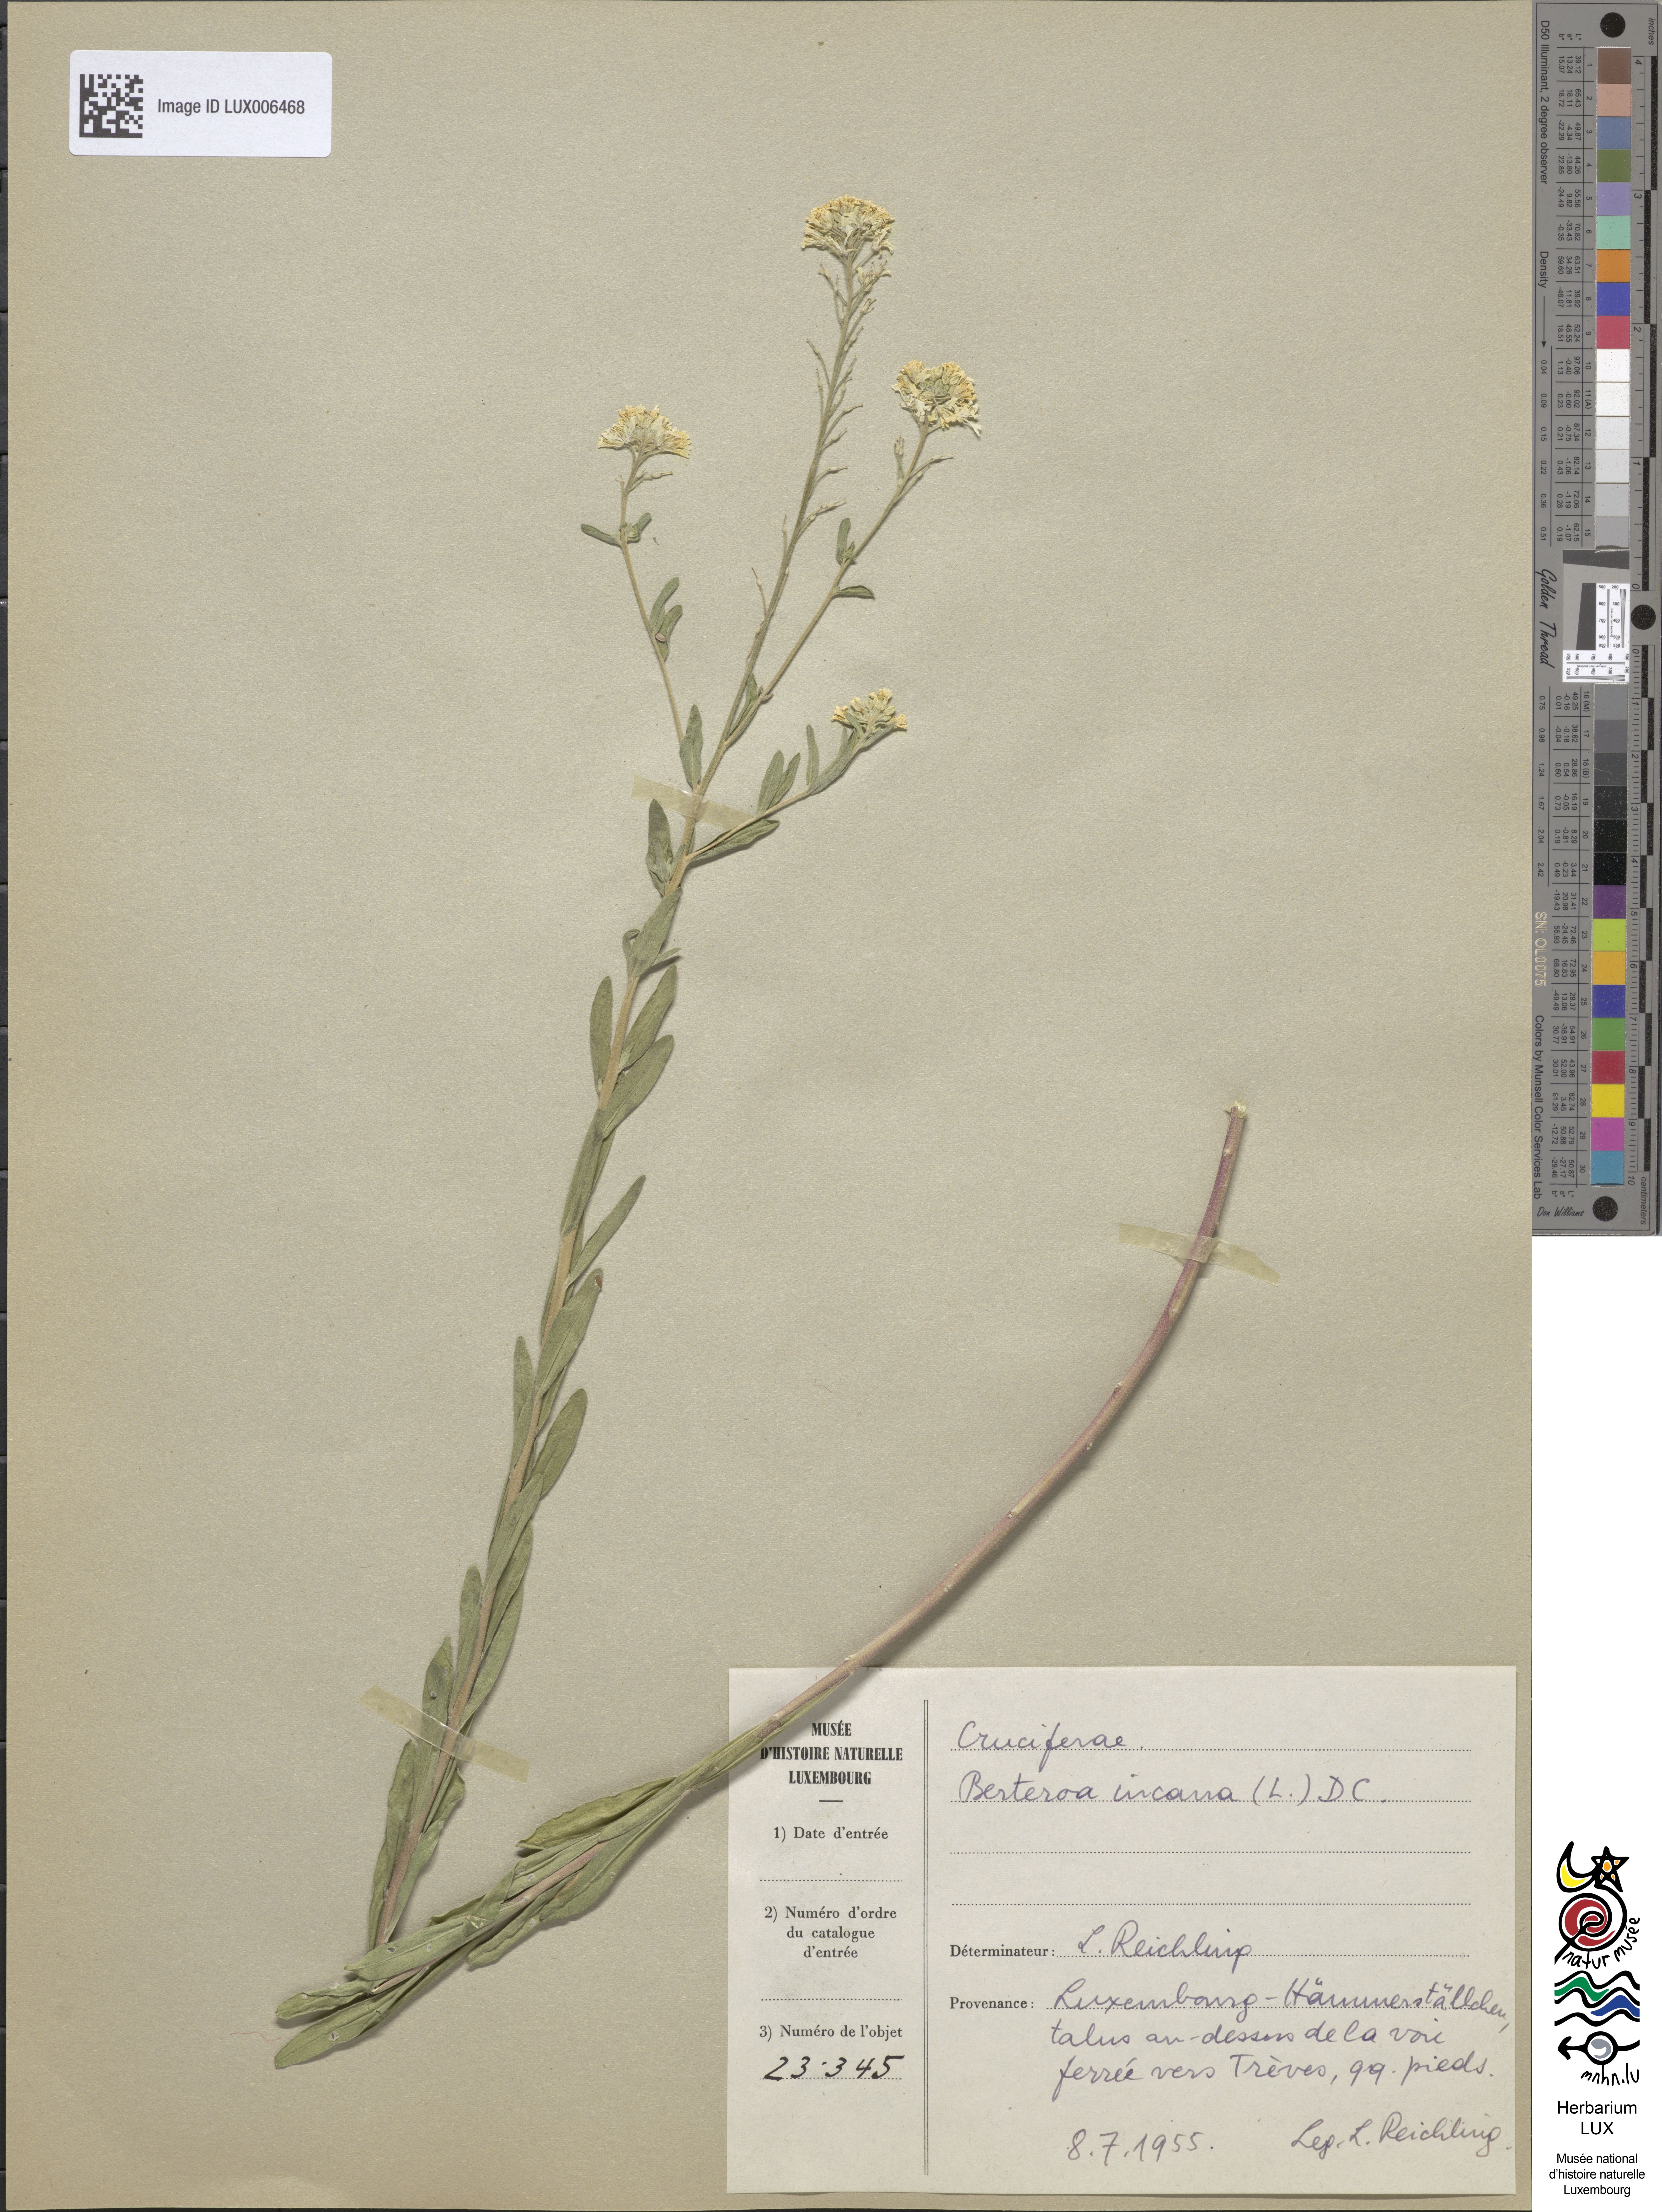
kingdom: Plantae
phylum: Tracheophyta
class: Magnoliopsida
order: Brassicales
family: Brassicaceae
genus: Berteroa
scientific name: Berteroa incana
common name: Hoary alison
